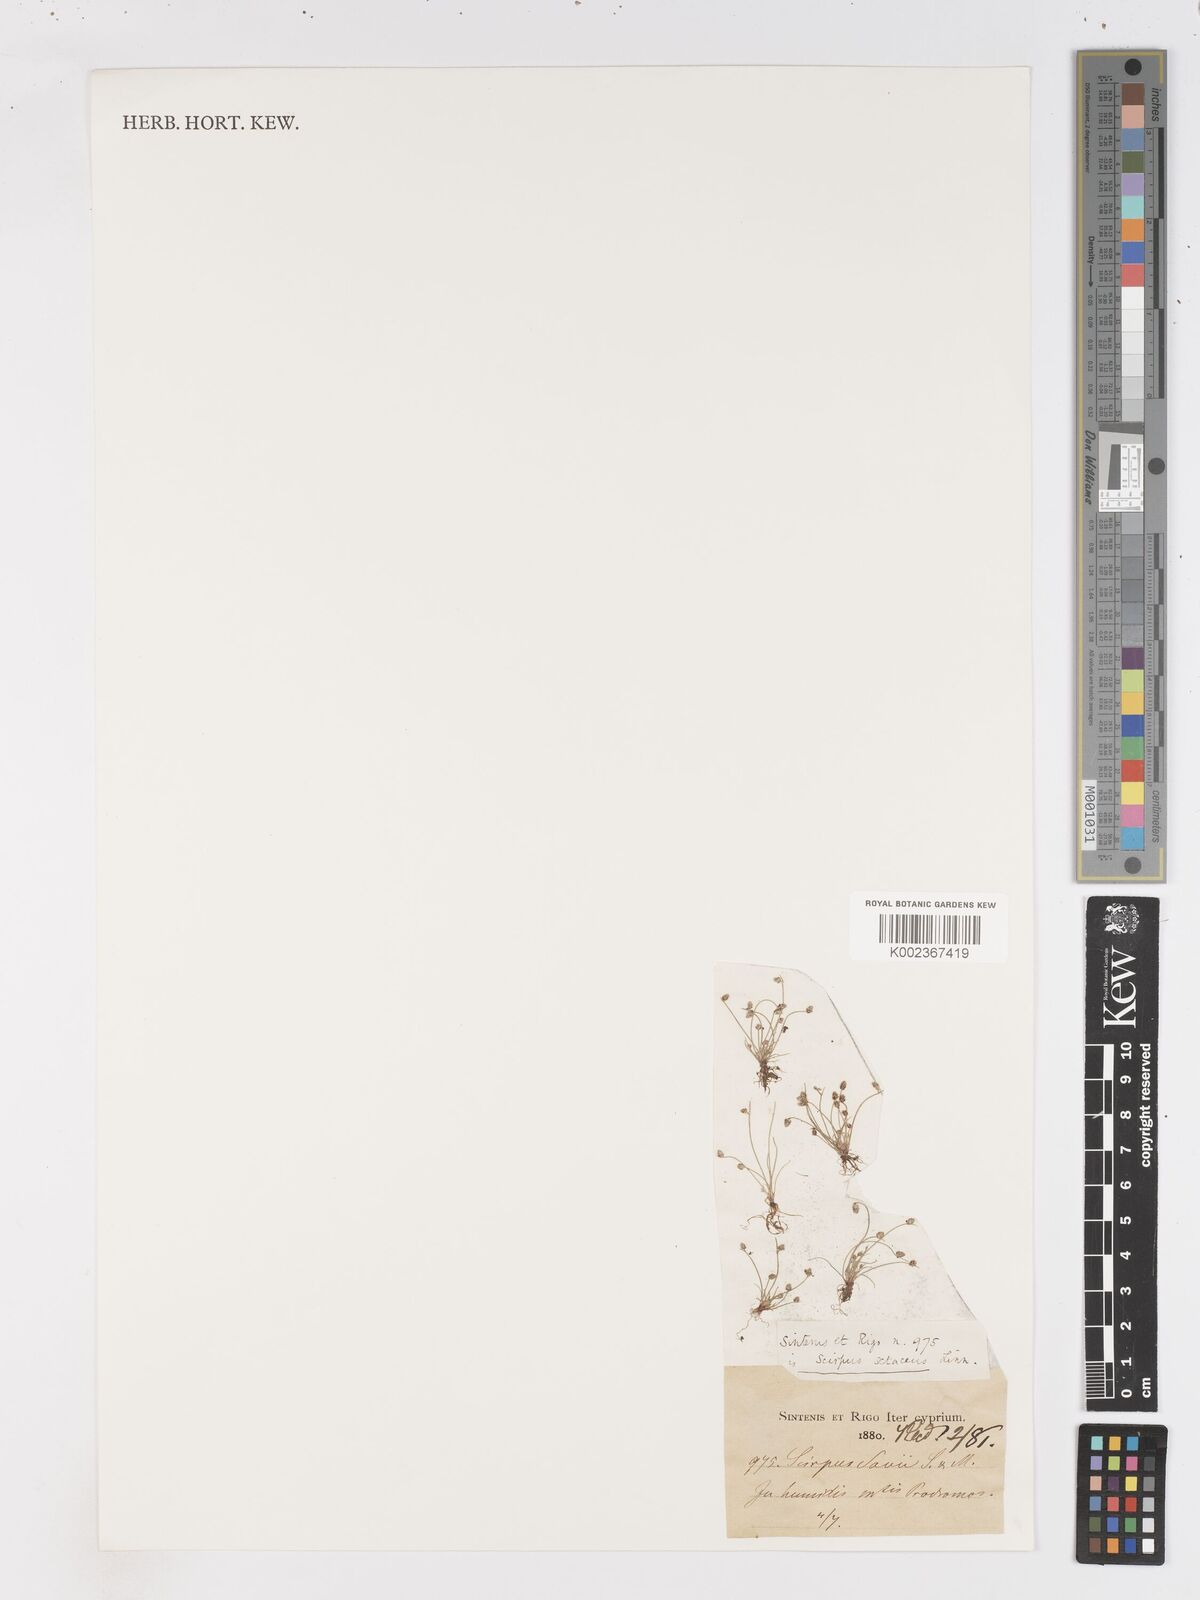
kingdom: Plantae
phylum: Tracheophyta
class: Liliopsida
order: Poales
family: Cyperaceae
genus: Isolepis
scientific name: Isolepis setacea
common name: Bristle club-rush
